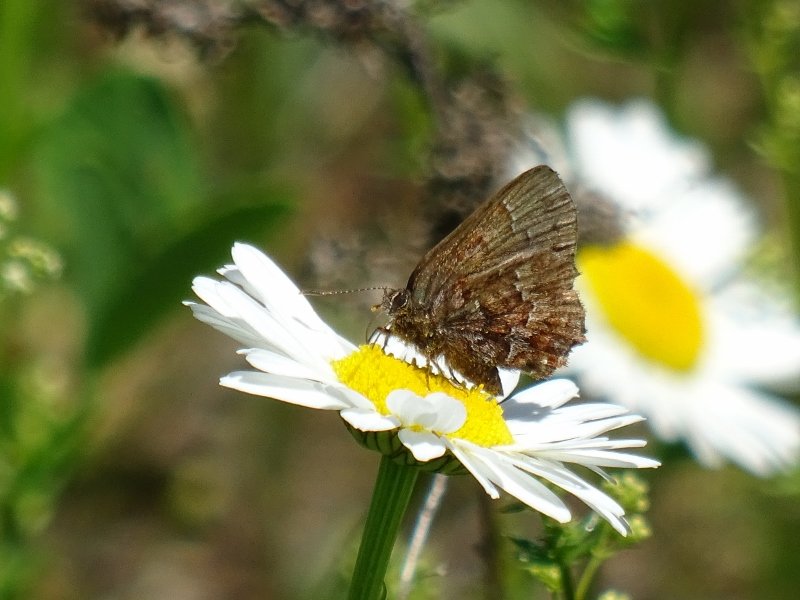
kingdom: Animalia
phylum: Arthropoda
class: Insecta
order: Lepidoptera
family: Lycaenidae
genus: Incisalia
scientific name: Incisalia niphon
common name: Eastern Pine Elfin
